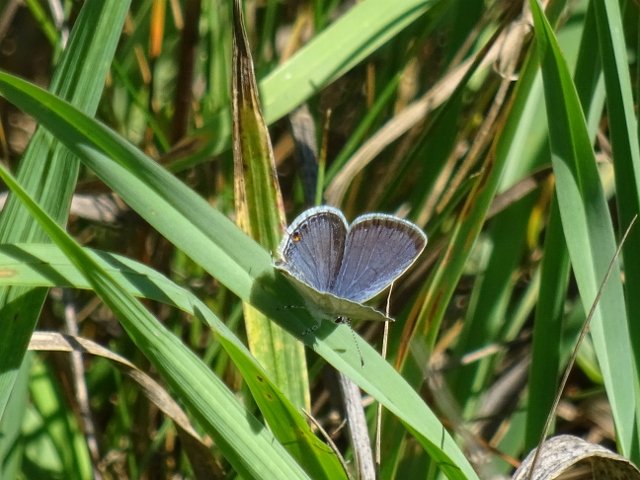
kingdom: Animalia
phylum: Arthropoda
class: Insecta
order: Lepidoptera
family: Lycaenidae
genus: Elkalyce
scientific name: Elkalyce comyntas
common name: Eastern Tailed-Blue
